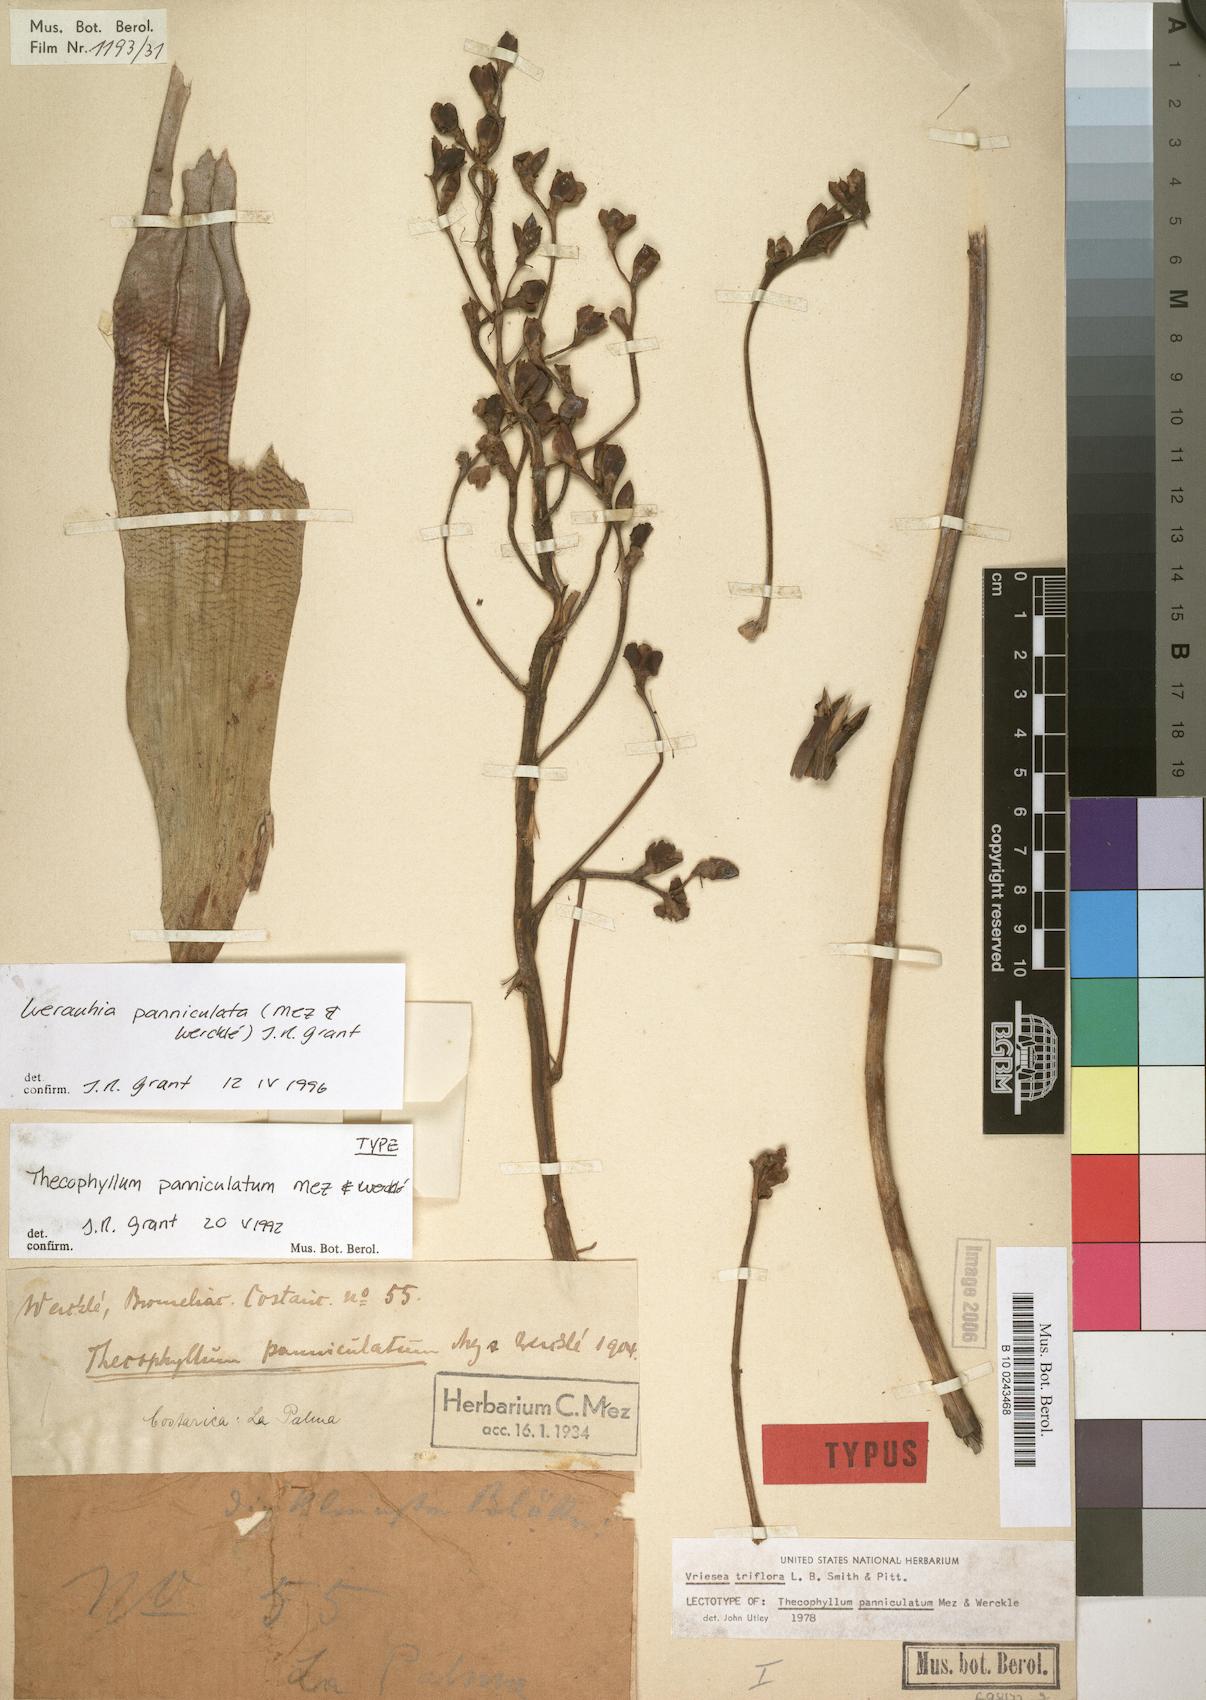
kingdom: Plantae
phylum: Tracheophyta
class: Liliopsida
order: Poales
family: Bromeliaceae
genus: Werauhia
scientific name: Werauhia paniculata
